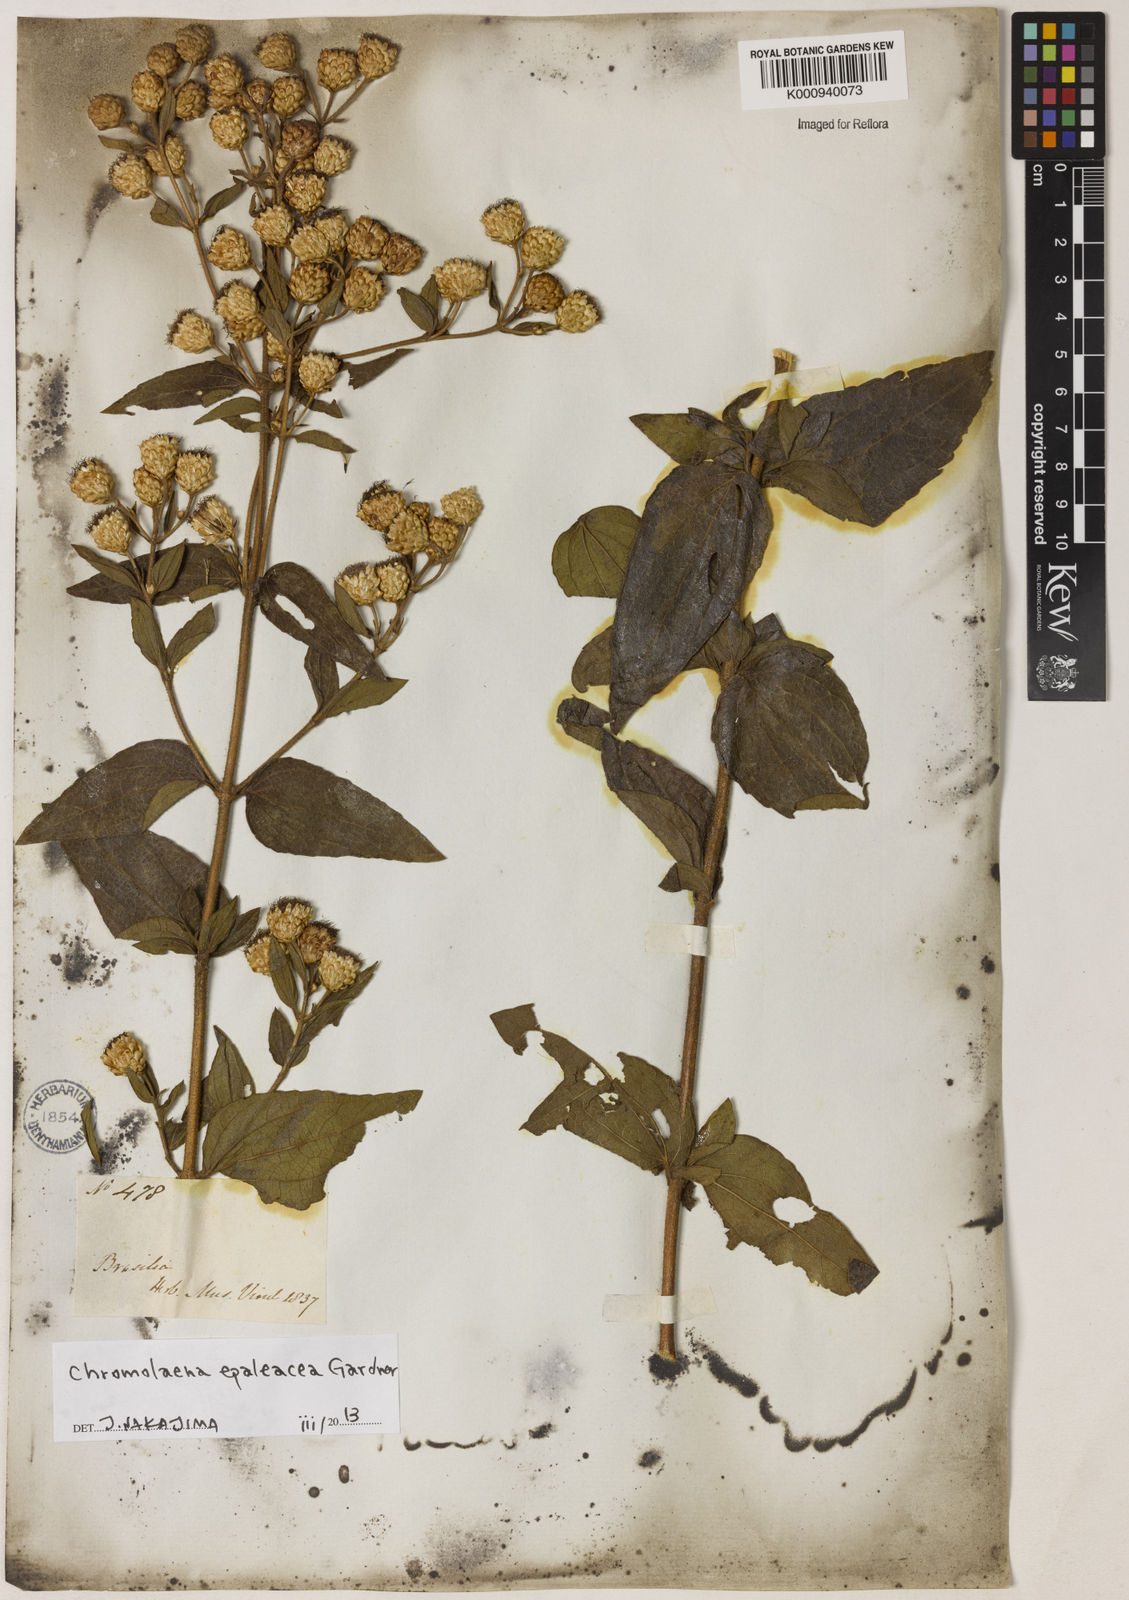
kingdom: Plantae
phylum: Tracheophyta
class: Magnoliopsida
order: Asterales
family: Asteraceae
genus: Chromolaena
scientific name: Chromolaena epaleacea
